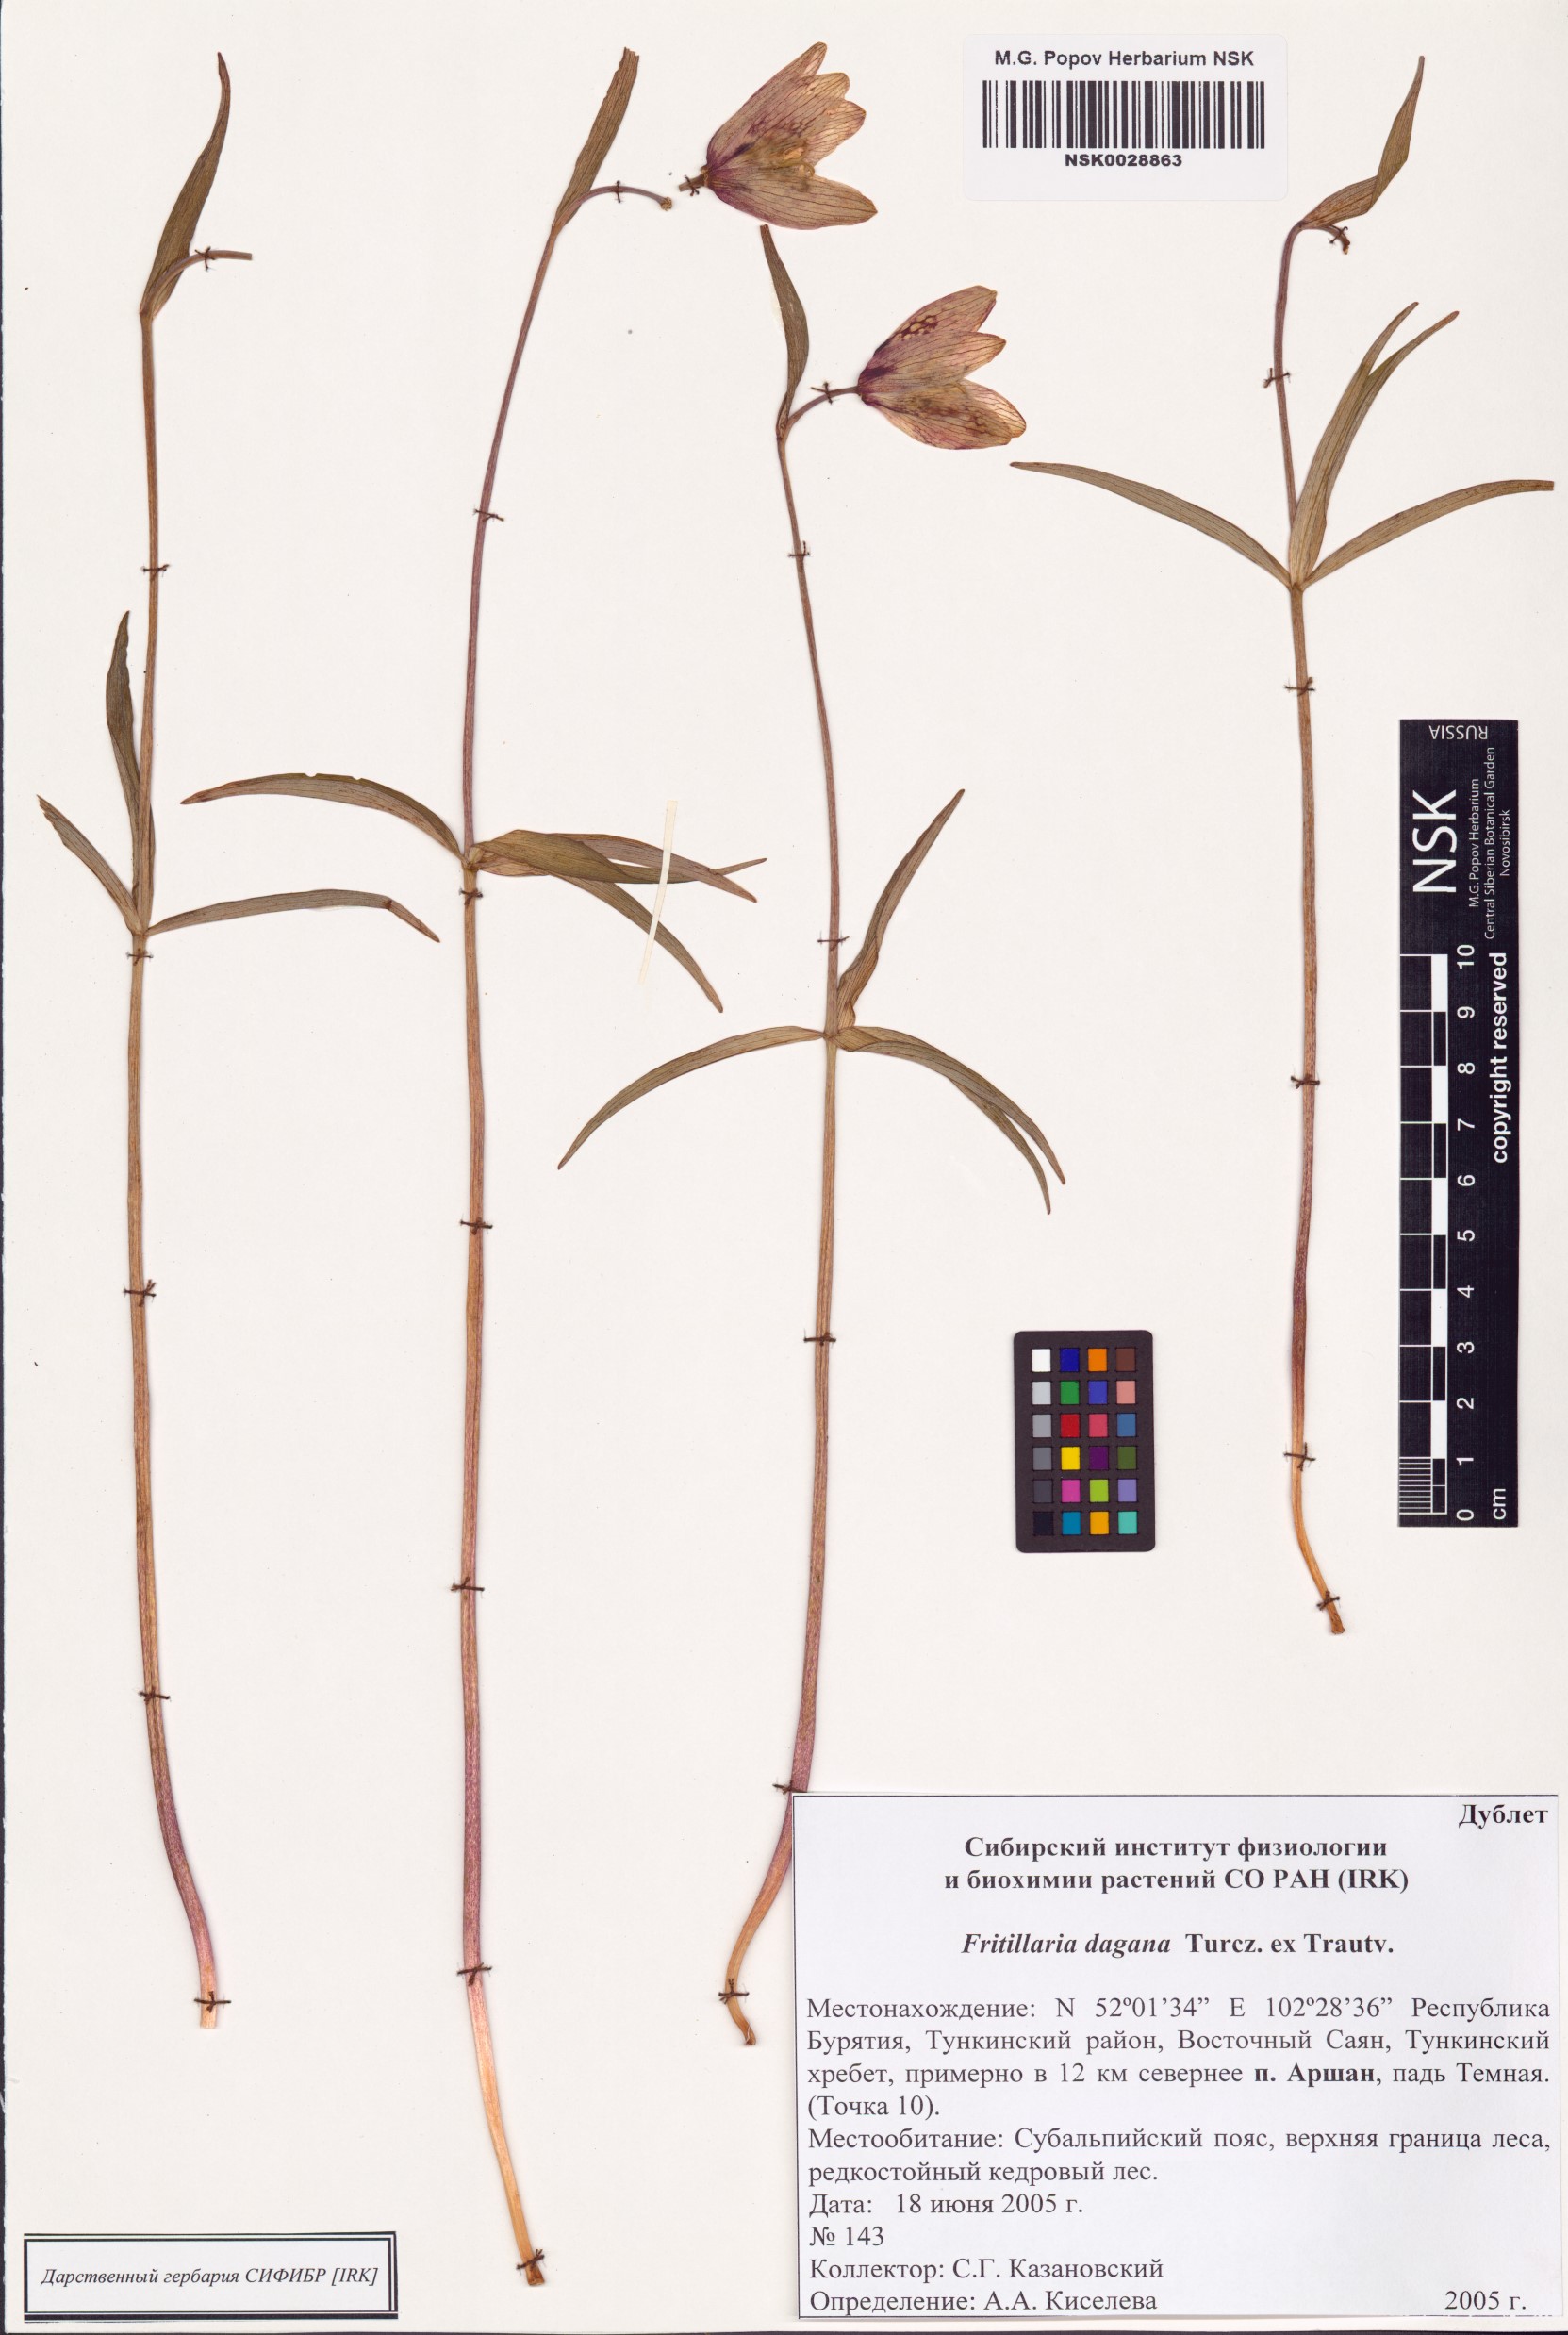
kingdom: Plantae
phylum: Tracheophyta
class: Liliopsida
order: Liliales
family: Liliaceae
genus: Fritillaria
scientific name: Fritillaria dagana
